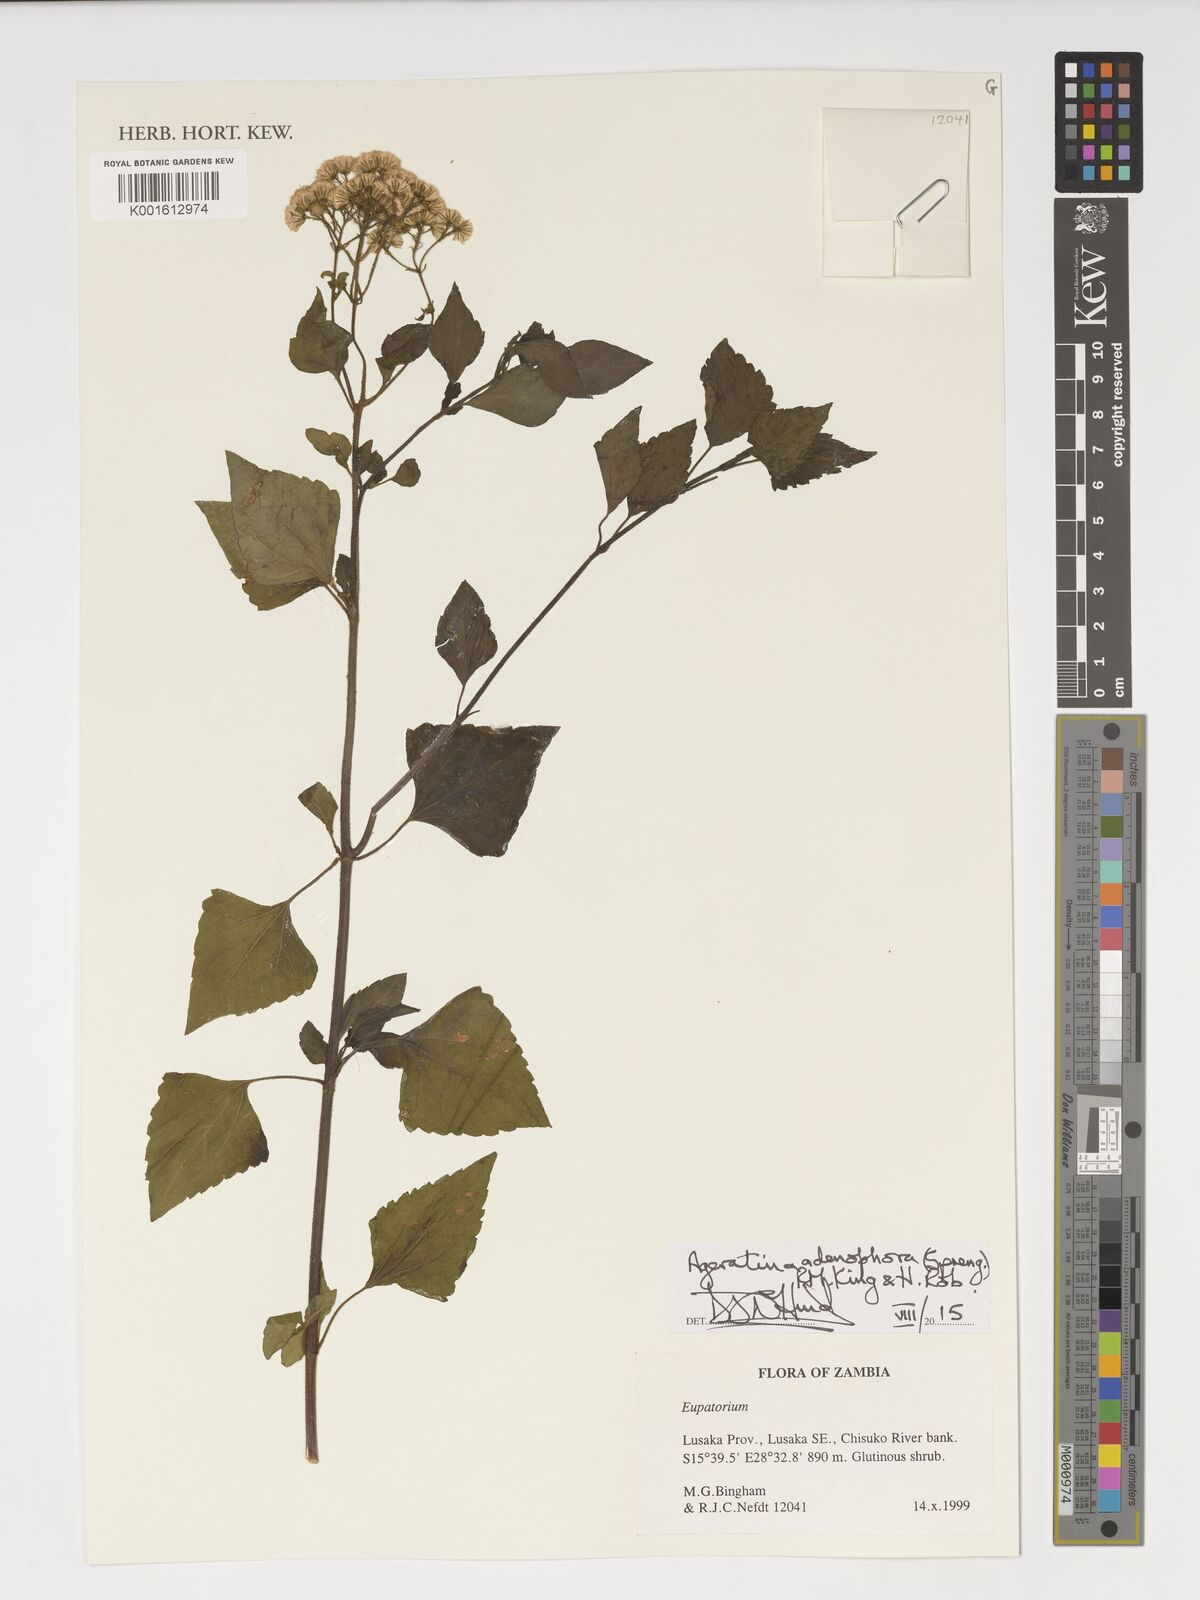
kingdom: Plantae
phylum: Tracheophyta
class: Magnoliopsida
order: Asterales
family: Asteraceae
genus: Ageratina
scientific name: Ageratina adenophora
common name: Sticky snakeroot
